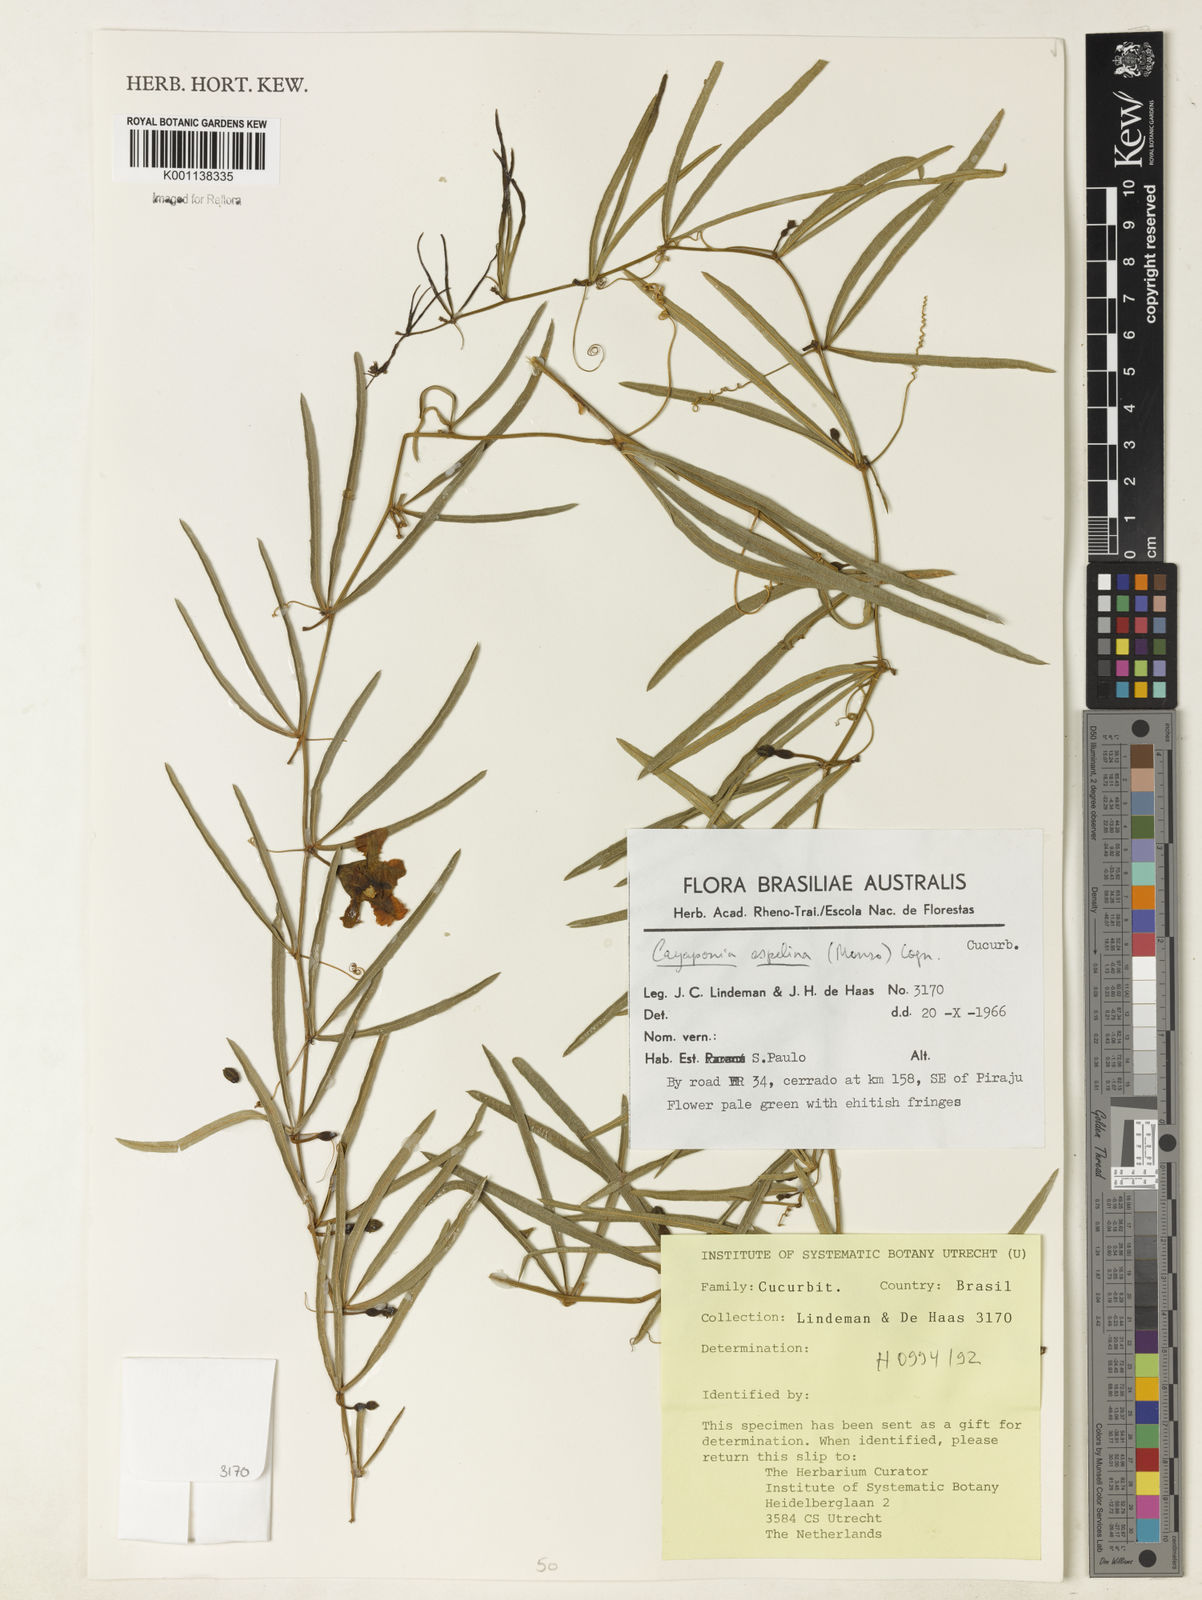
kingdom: Plantae
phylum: Tracheophyta
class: Magnoliopsida
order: Cucurbitales
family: Cucurbitaceae
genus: Cayaponia
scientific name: Cayaponia espelina
